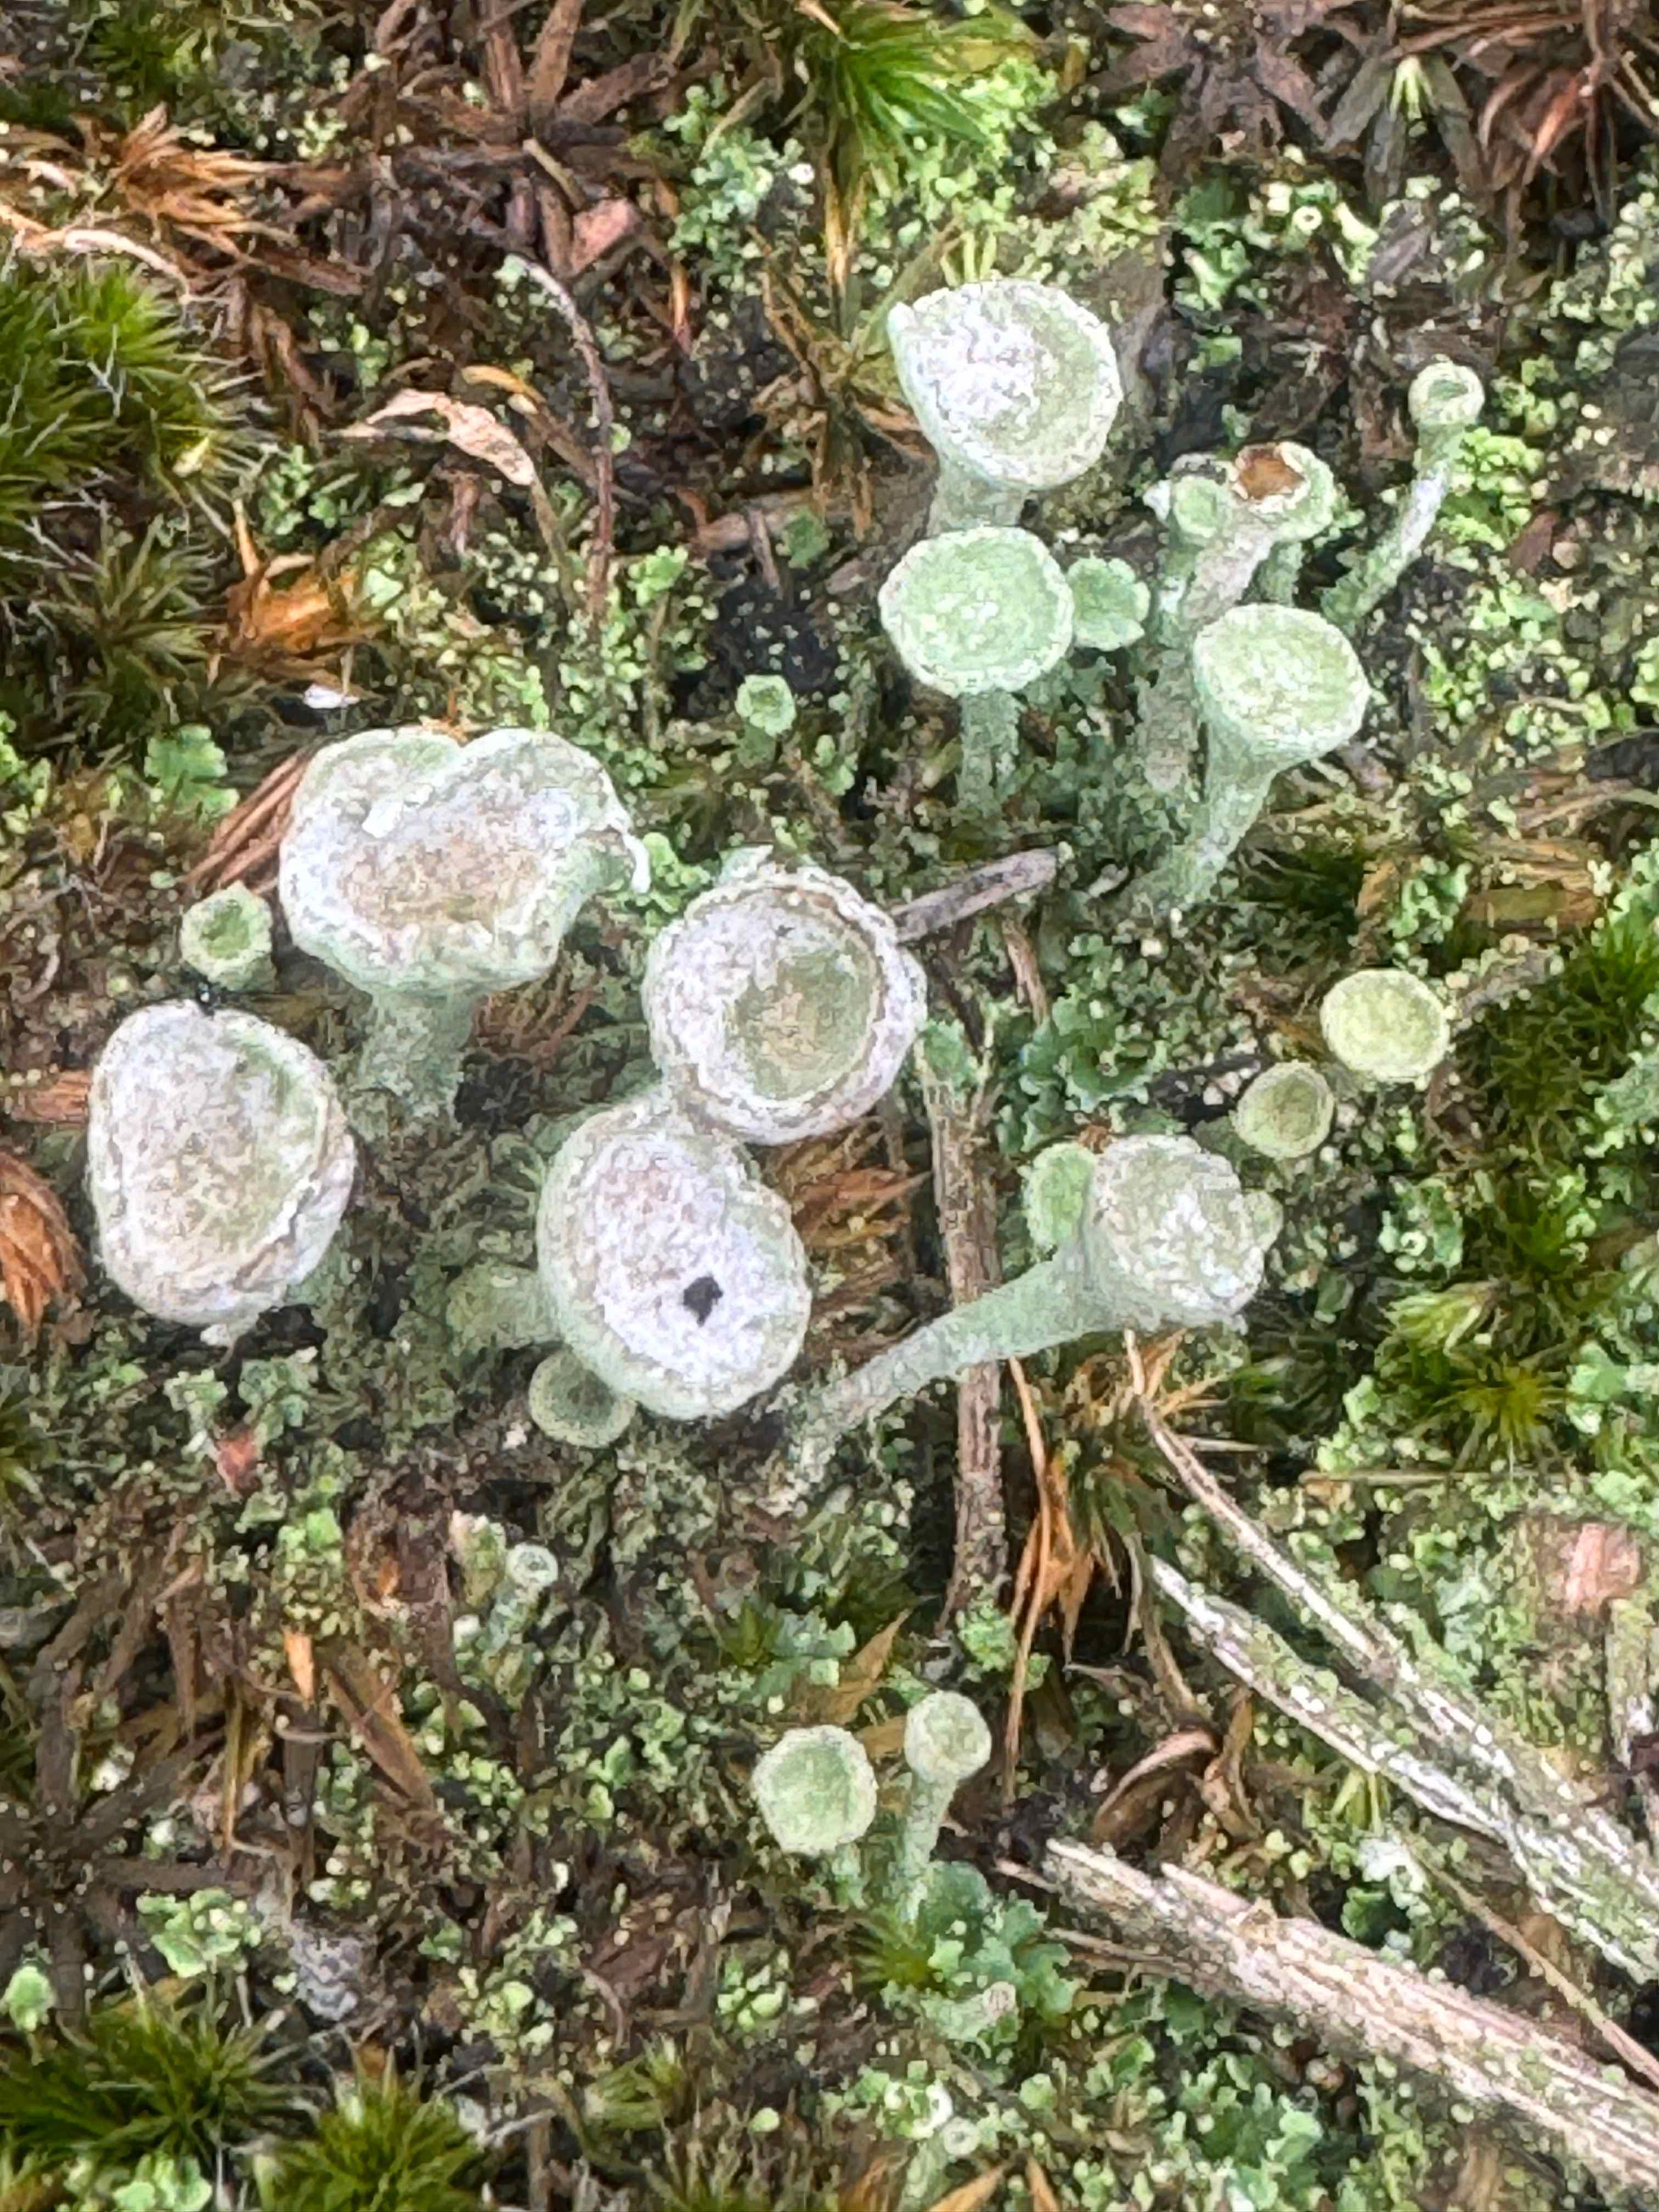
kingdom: Fungi
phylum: Ascomycota
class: Lecanoromycetes
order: Lecanorales
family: Cladoniaceae
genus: Cladonia
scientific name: Cladonia fimbriata
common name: bleggrøn bægerlav
